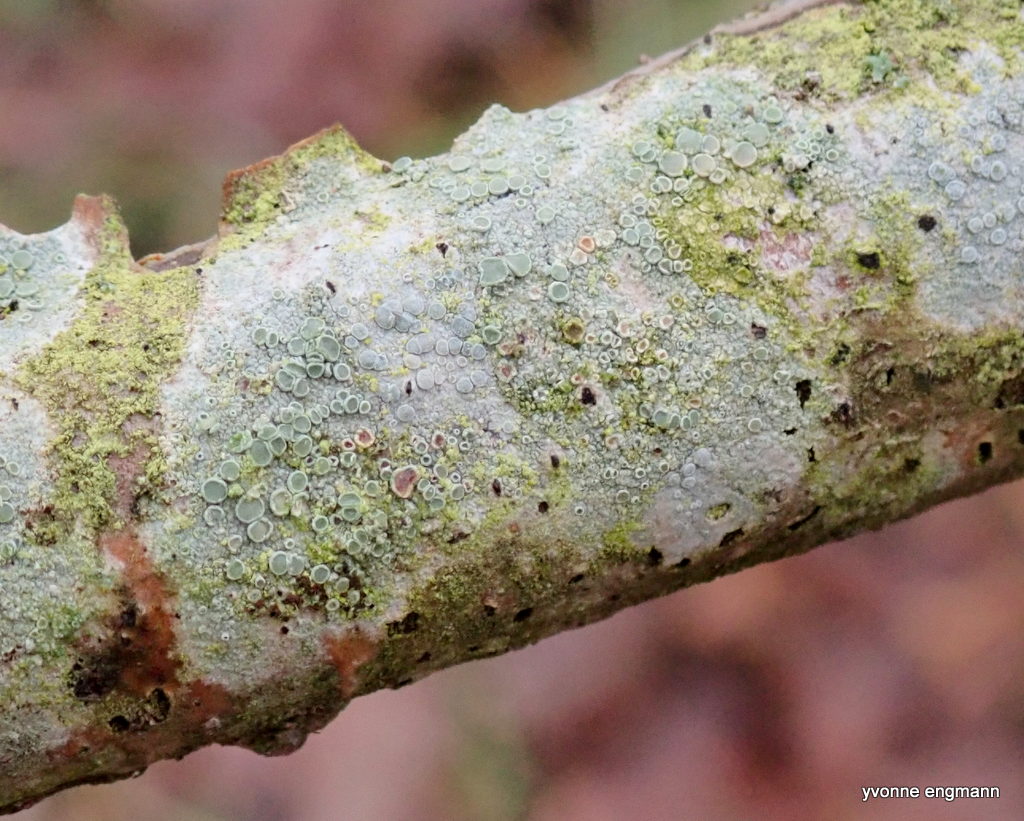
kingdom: Fungi
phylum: Ascomycota
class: Lecanoromycetes
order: Lecanorales
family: Lecanoraceae
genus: Lecanora
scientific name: Lecanora chlarotera
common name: brun kantskivelav
